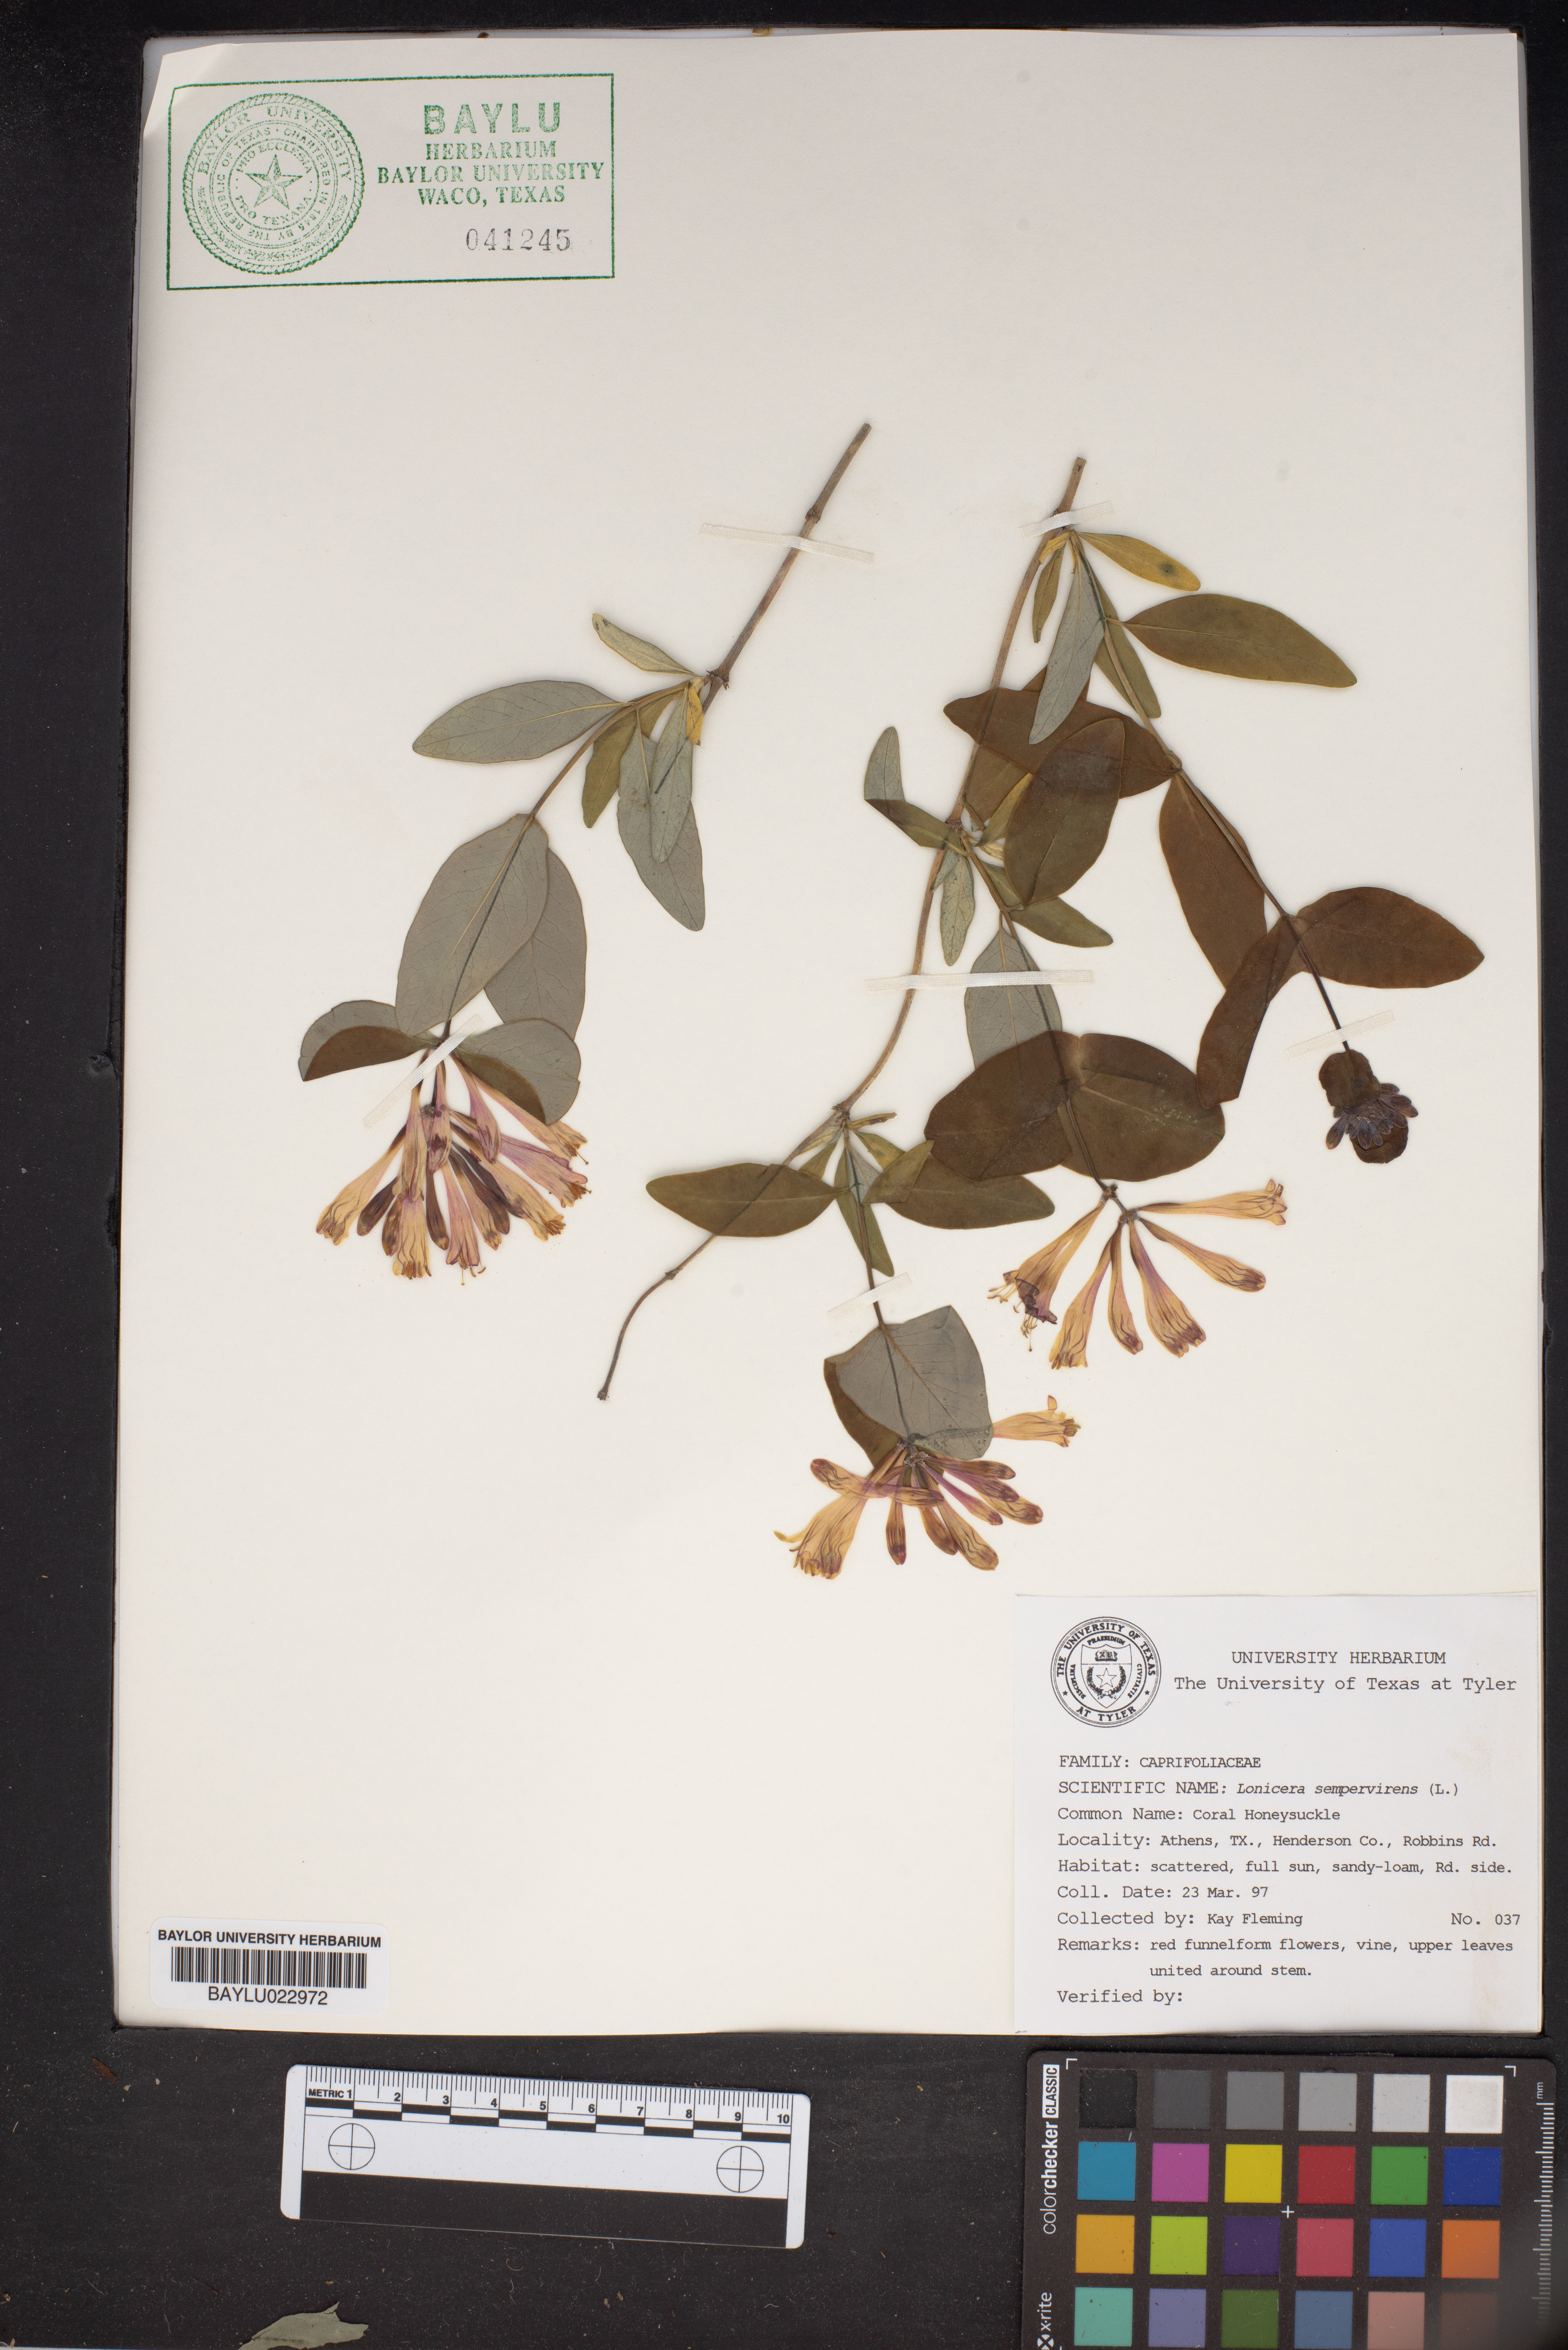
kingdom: Plantae
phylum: Tracheophyta
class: Magnoliopsida
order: Dipsacales
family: Caprifoliaceae
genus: Lonicera
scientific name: Lonicera sempervirens
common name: Coral honeysuckle
